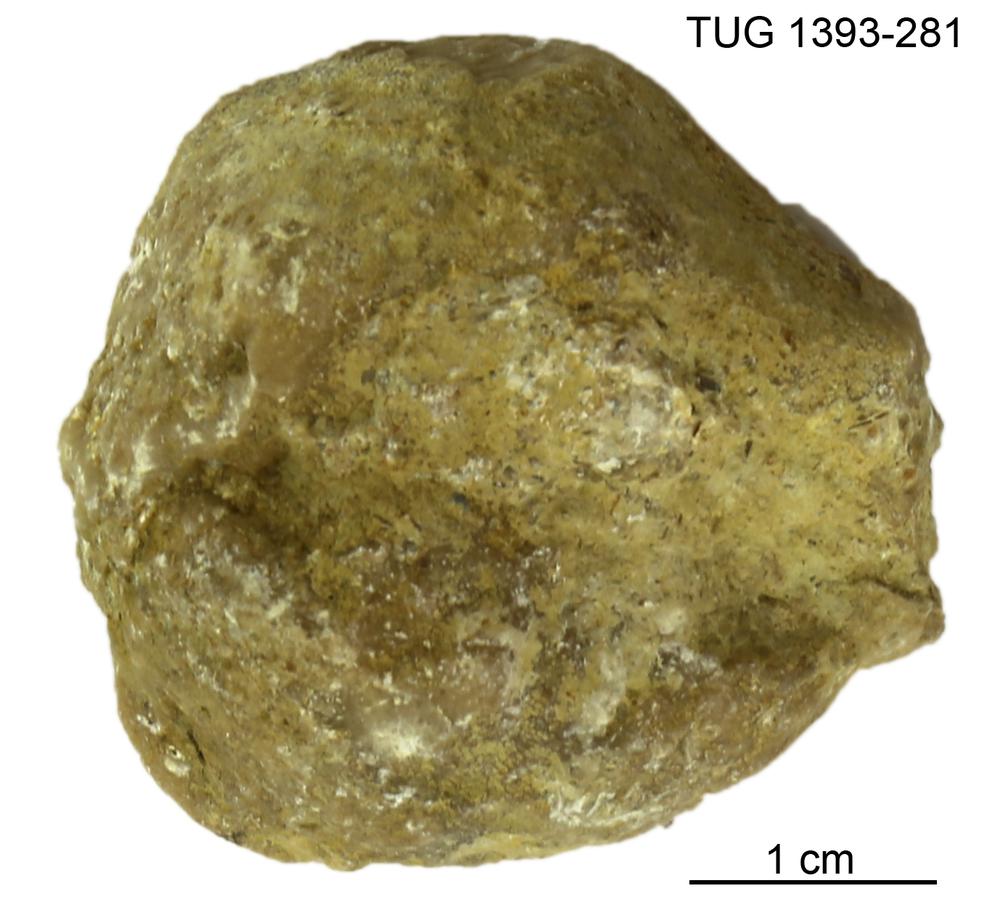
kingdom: Animalia
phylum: Bryozoa
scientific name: Bryozoa
